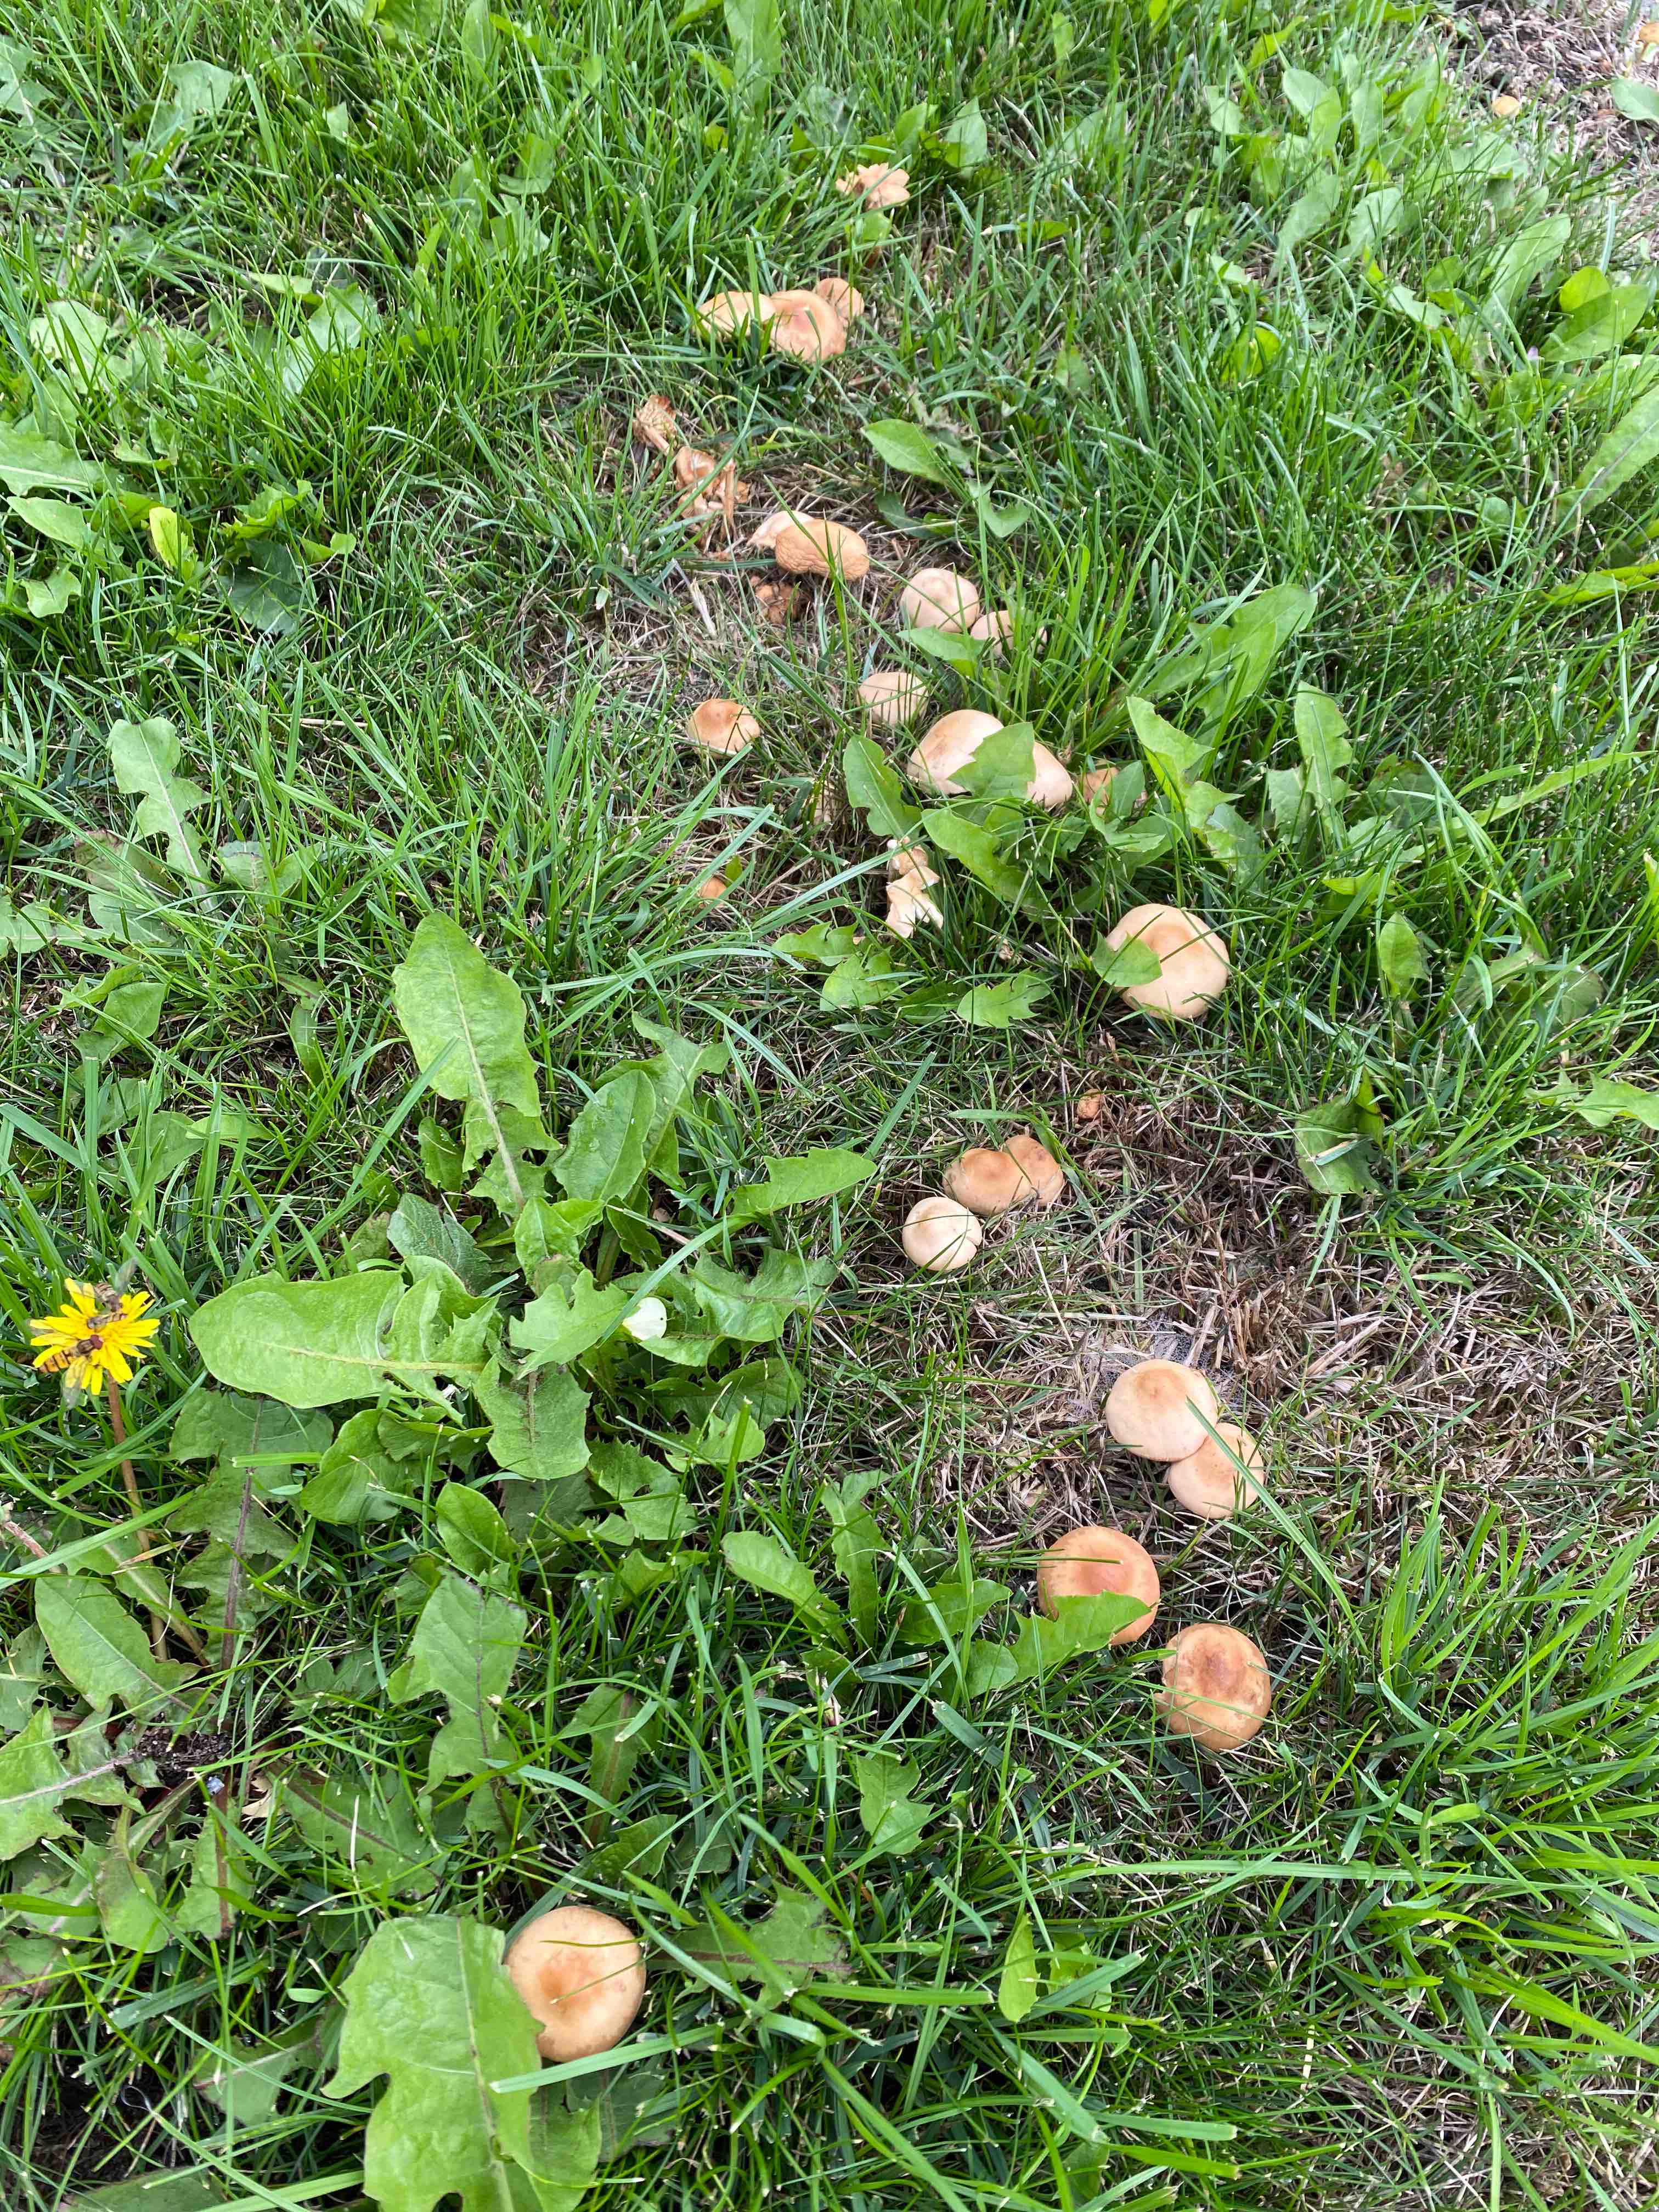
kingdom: Fungi
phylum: Basidiomycota
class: Agaricomycetes
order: Agaricales
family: Marasmiaceae
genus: Marasmius
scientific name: Marasmius oreades
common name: elledans-bruskhat
